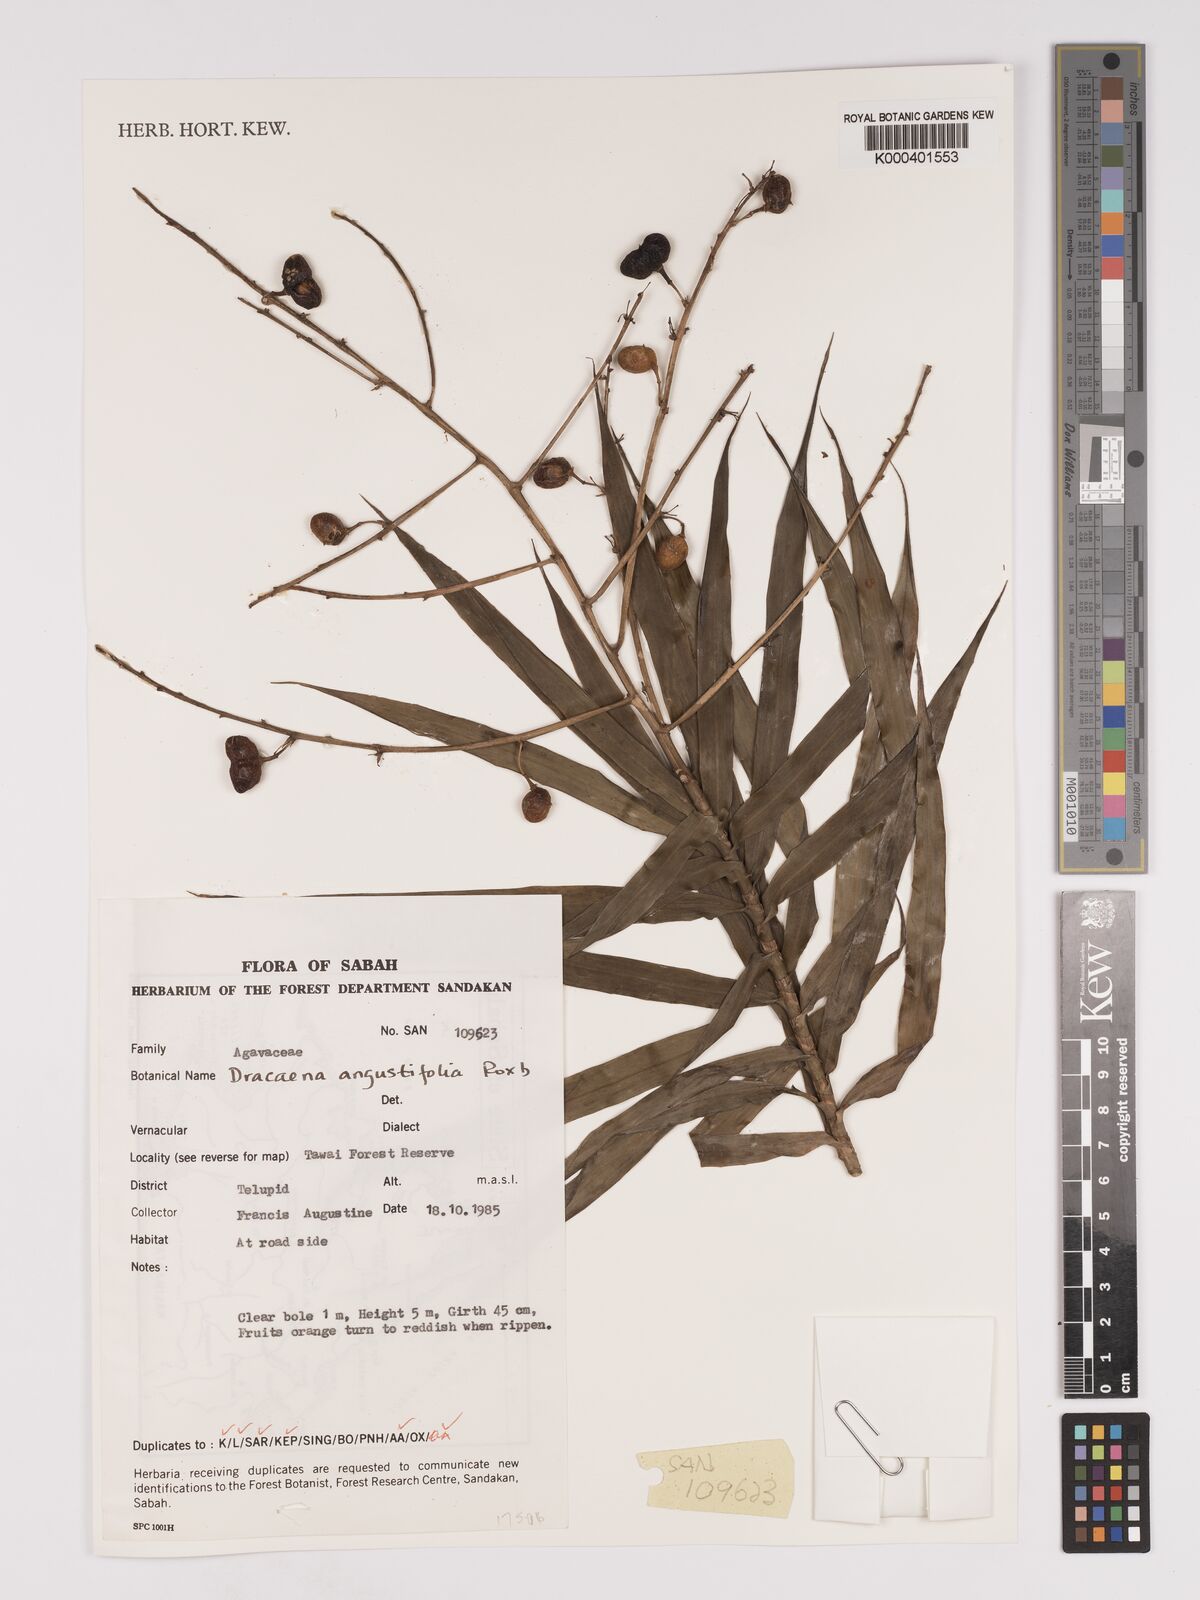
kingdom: Plantae
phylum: Tracheophyta
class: Liliopsida
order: Asparagales
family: Asparagaceae
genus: Dracaena
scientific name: Dracaena angustifolia
